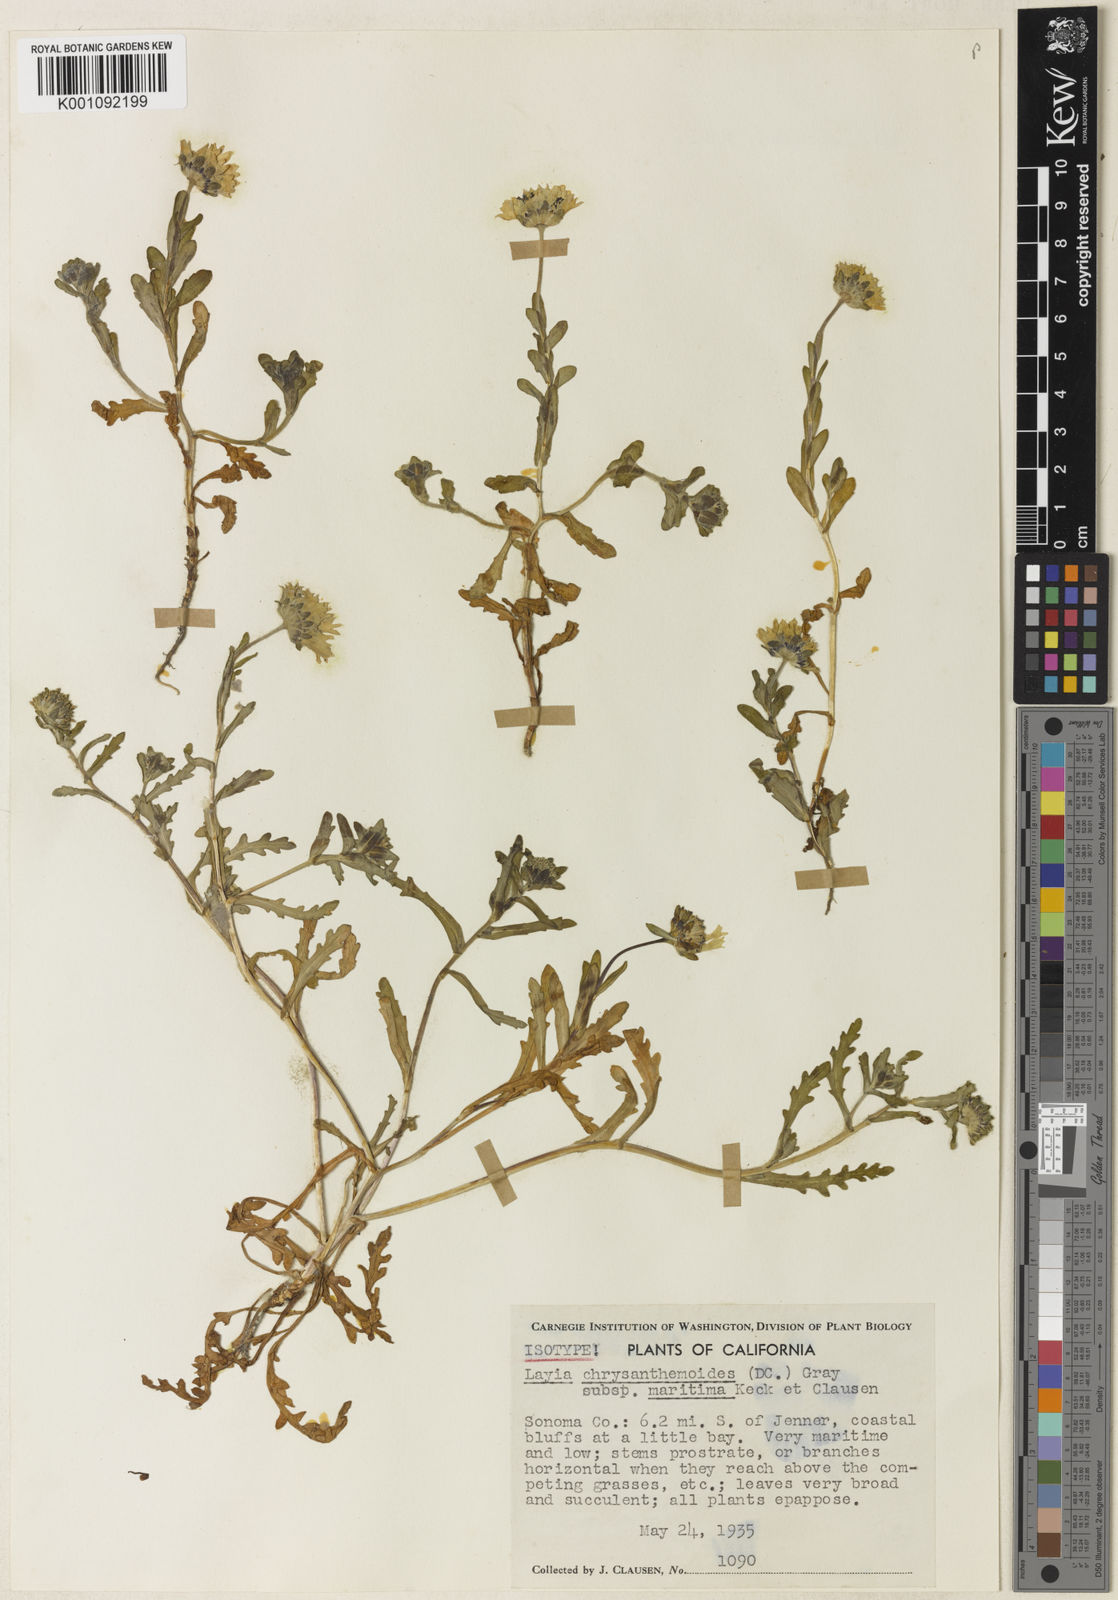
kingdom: Plantae
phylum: Tracheophyta
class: Magnoliopsida
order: Asterales
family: Asteraceae
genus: Layia
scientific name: Layia chrysanthemoides
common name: Smooth layia
